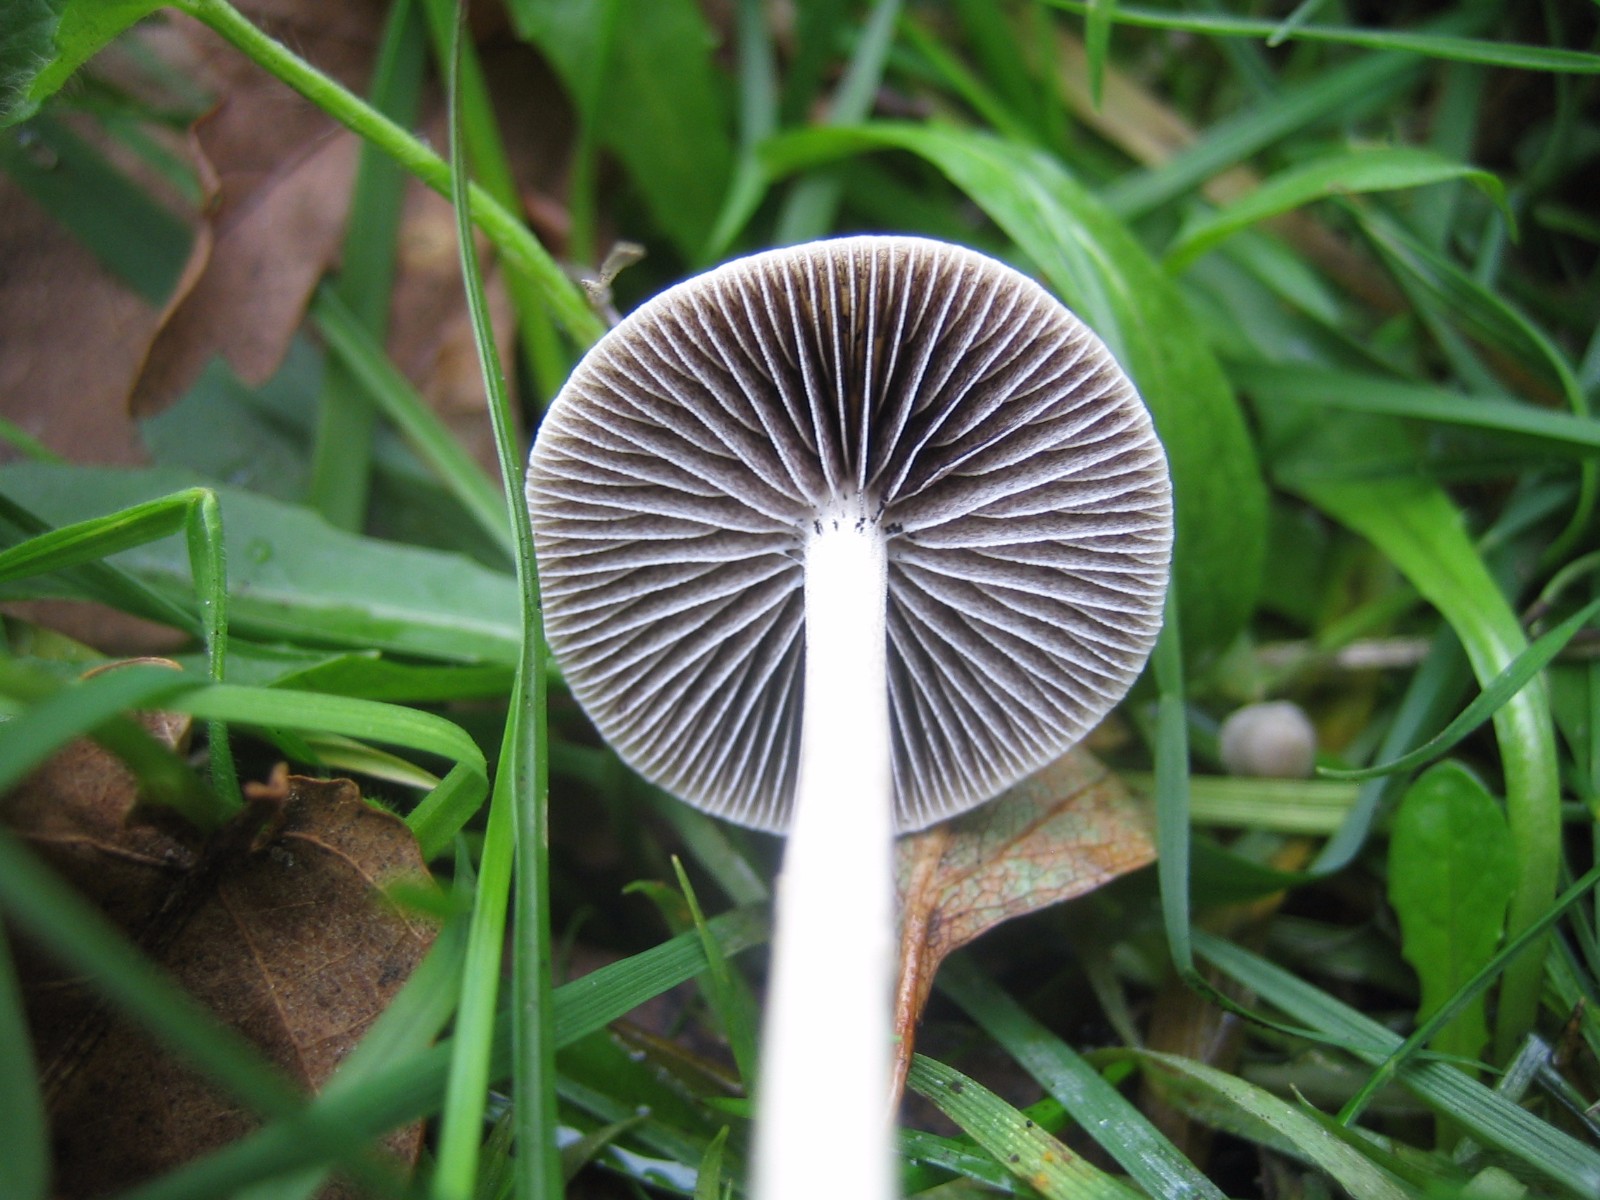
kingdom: Fungi
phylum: Basidiomycota
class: Agaricomycetes
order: Agaricales
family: Strophariaceae
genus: Protostropharia
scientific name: Protostropharia semiglobata
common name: halvkugleformet bredblad
